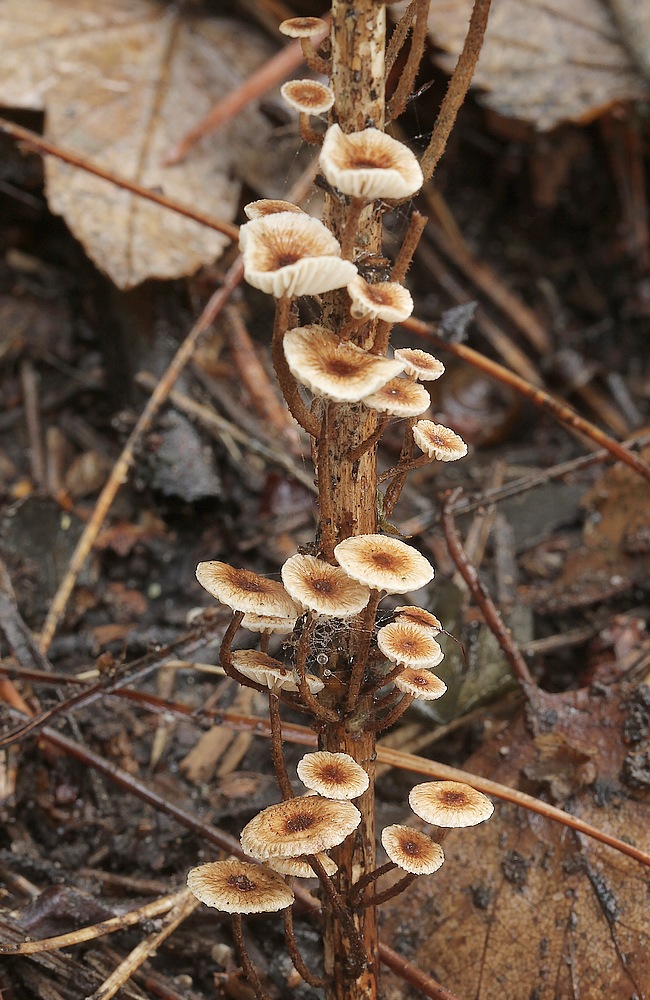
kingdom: Fungi
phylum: Basidiomycota
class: Agaricomycetes
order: Agaricales
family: Marasmiaceae
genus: Crinipellis
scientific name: Crinipellis scabella
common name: børstefod
